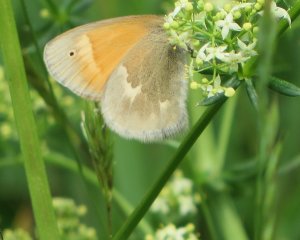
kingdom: Animalia
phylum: Arthropoda
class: Insecta
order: Lepidoptera
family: Nymphalidae
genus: Coenonympha
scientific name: Coenonympha tullia
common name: Large Heath
